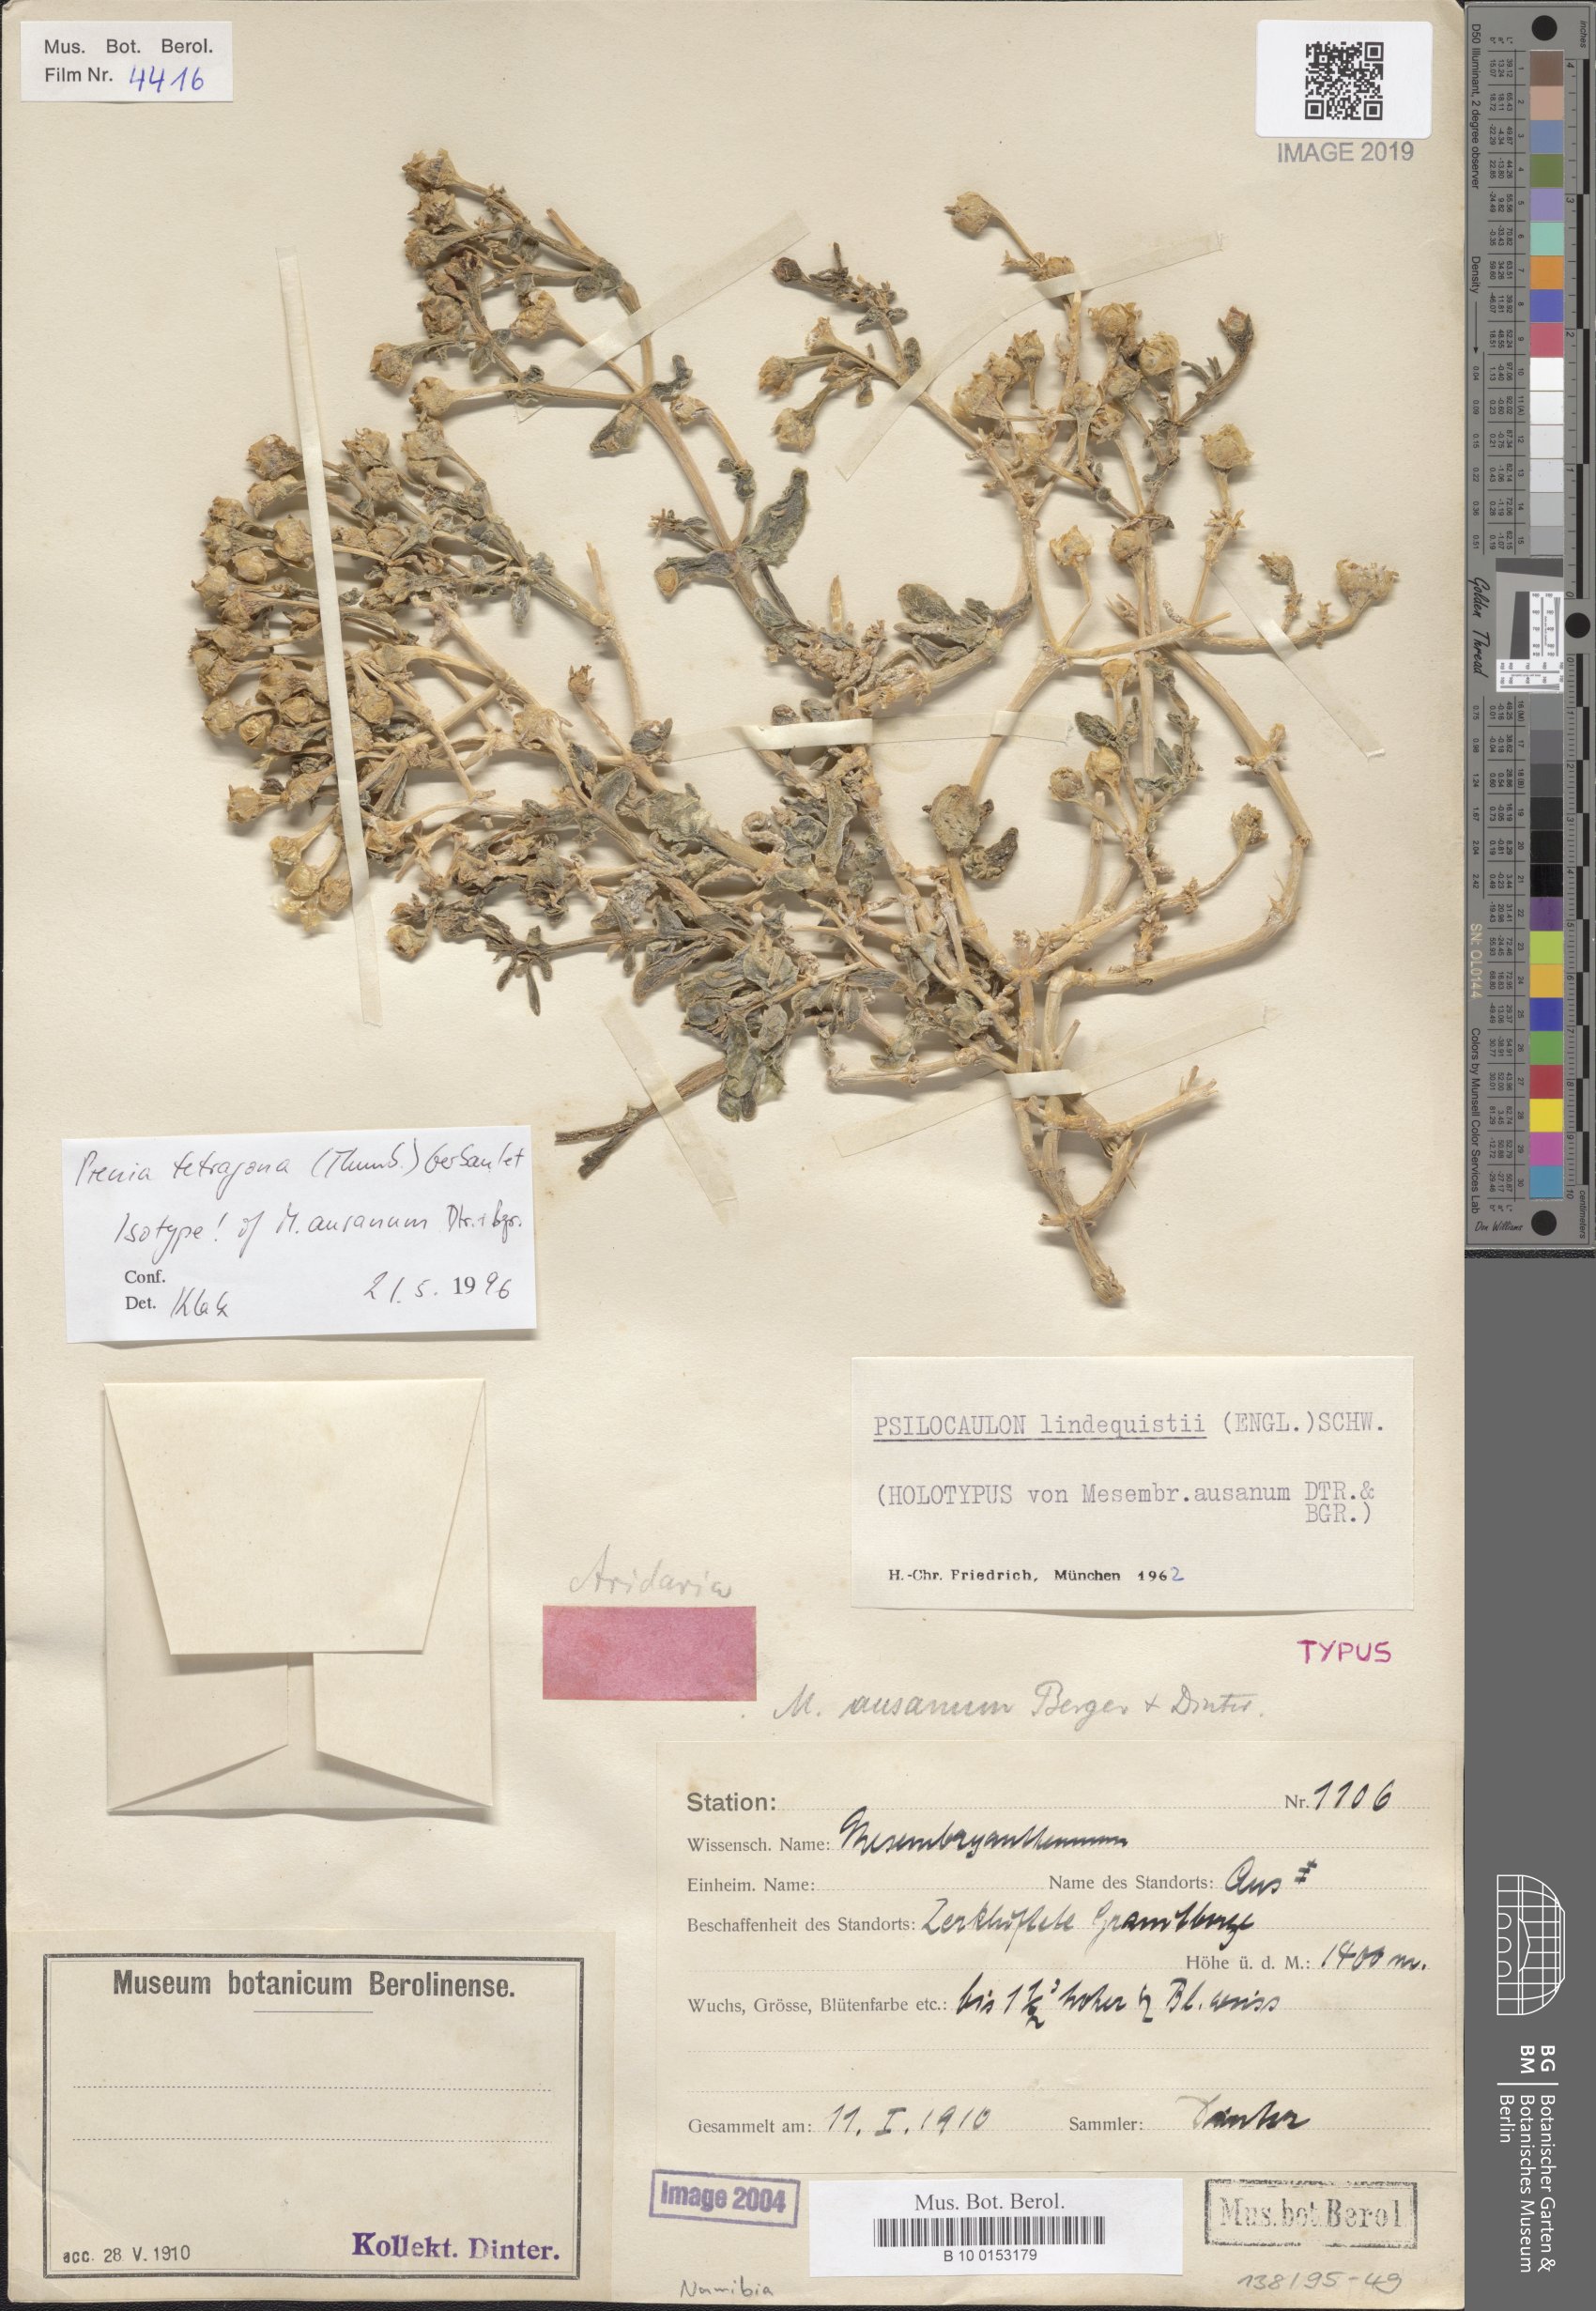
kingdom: Plantae
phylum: Tracheophyta
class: Magnoliopsida
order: Caryophyllales
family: Aizoaceae
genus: Mesembryanthemum
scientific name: Mesembryanthemum tetragonum
